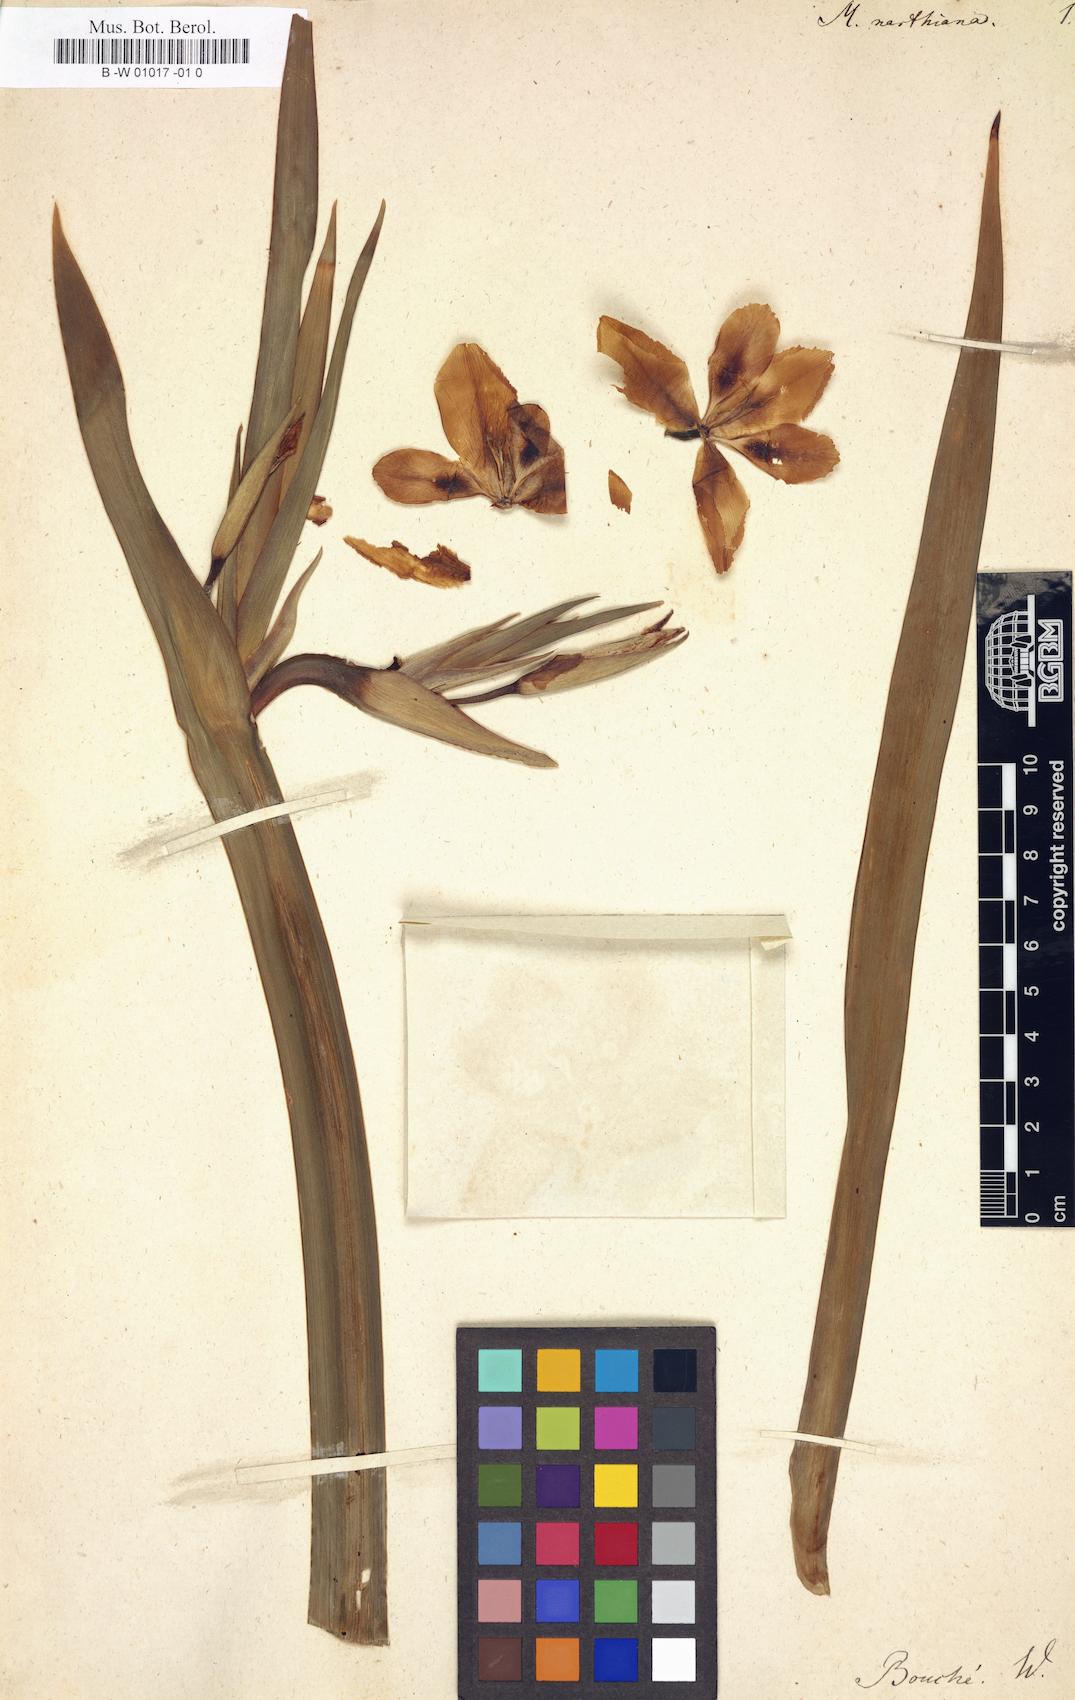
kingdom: Plantae
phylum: Tracheophyta
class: Liliopsida
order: Asparagales
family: Iridaceae
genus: Trimezia
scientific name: Trimezia northiana
